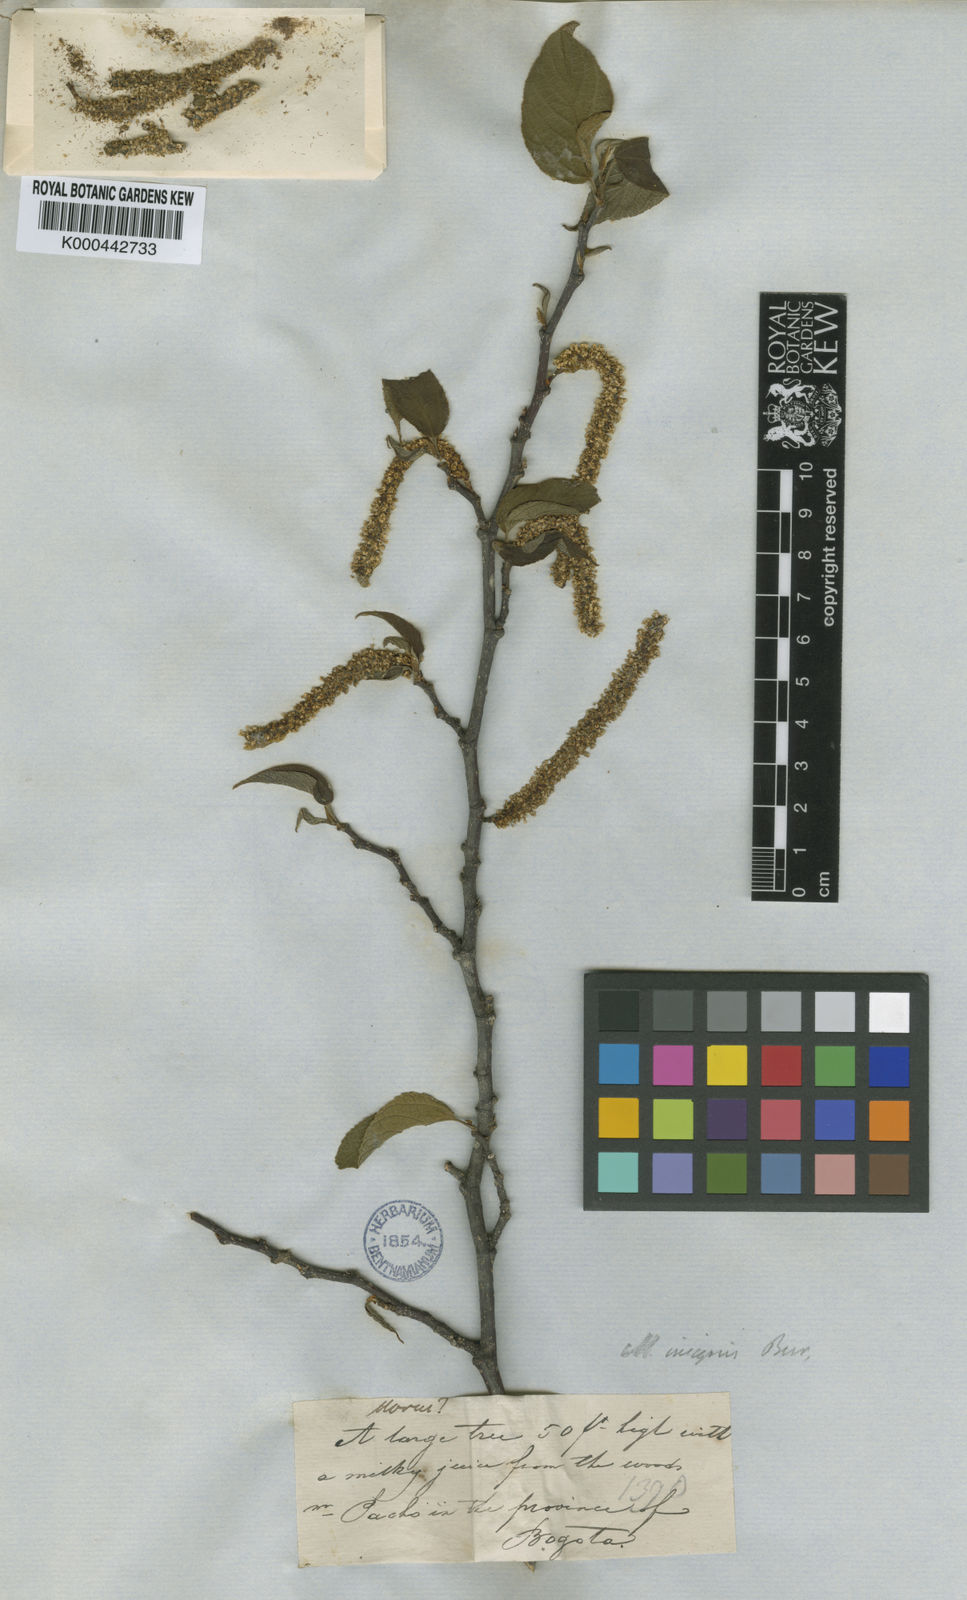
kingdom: Plantae
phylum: Tracheophyta
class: Magnoliopsida
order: Rosales
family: Moraceae
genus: Paratrophis
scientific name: Paratrophis insignis
